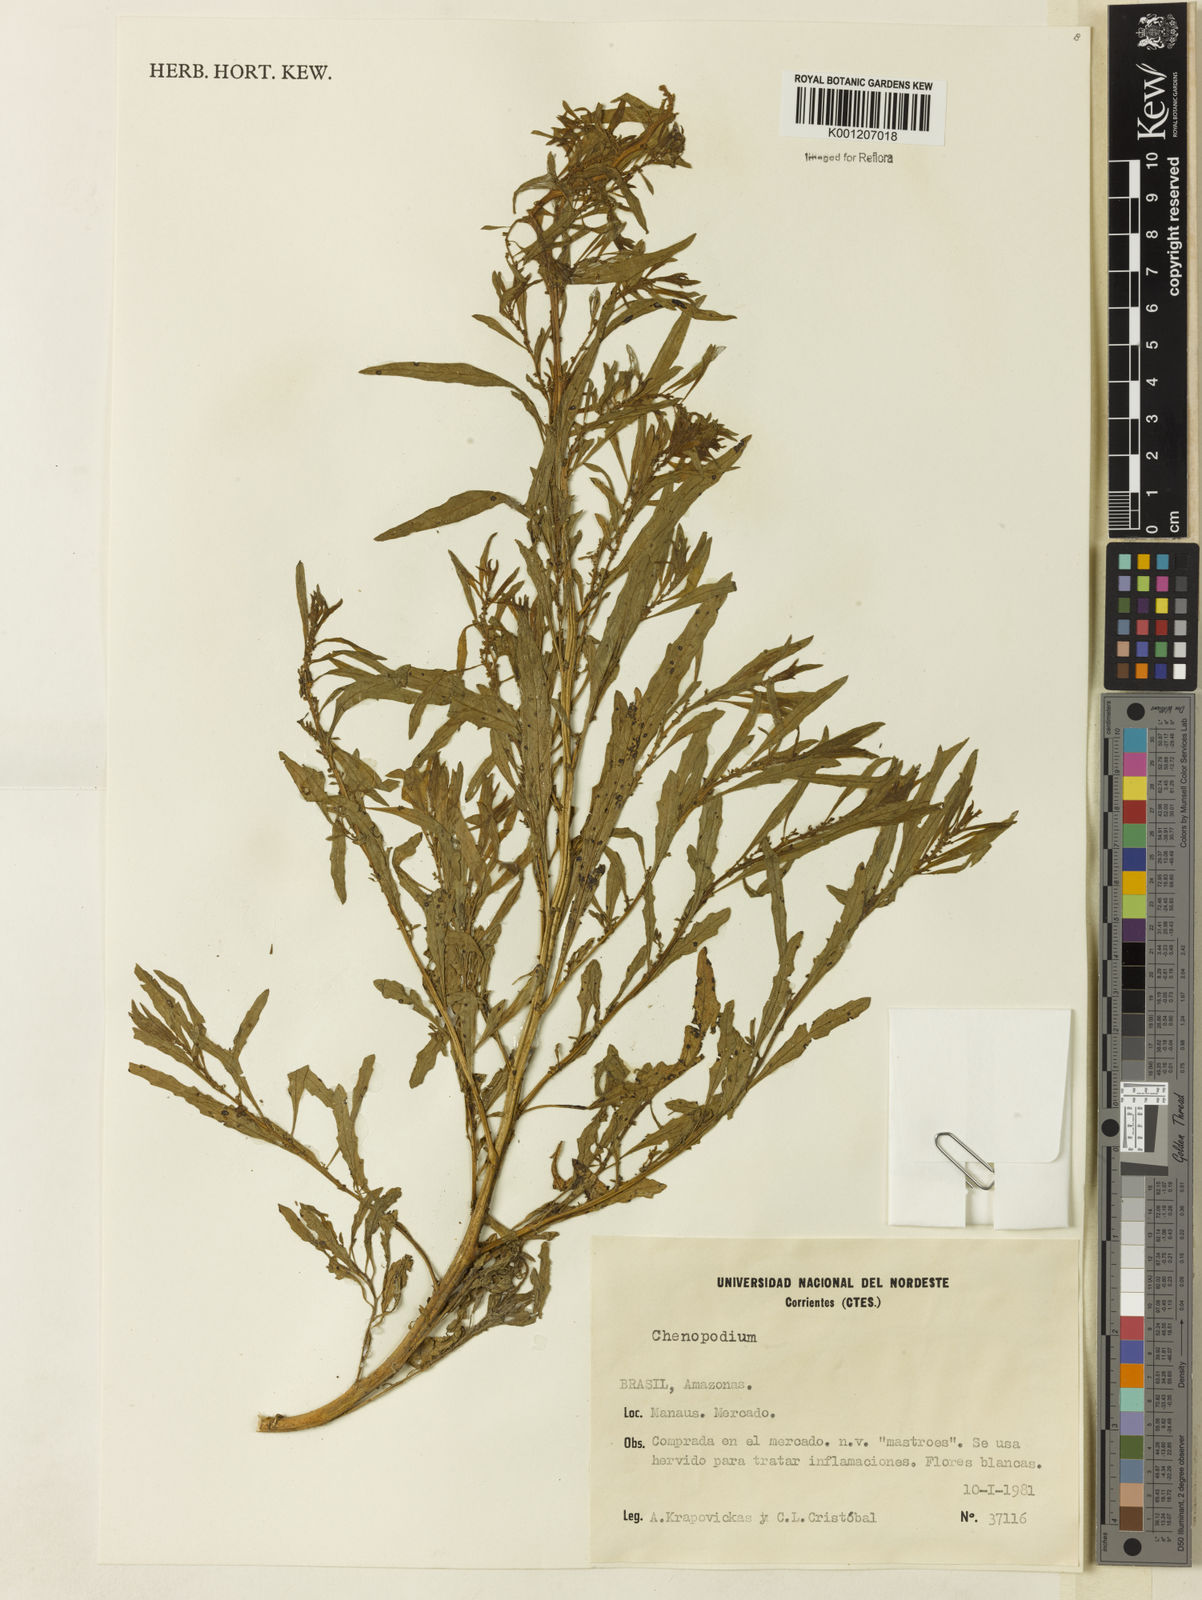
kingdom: Plantae
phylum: Tracheophyta
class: Magnoliopsida
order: Caryophyllales
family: Amaranthaceae
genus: Chenopodium
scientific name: Chenopodium
